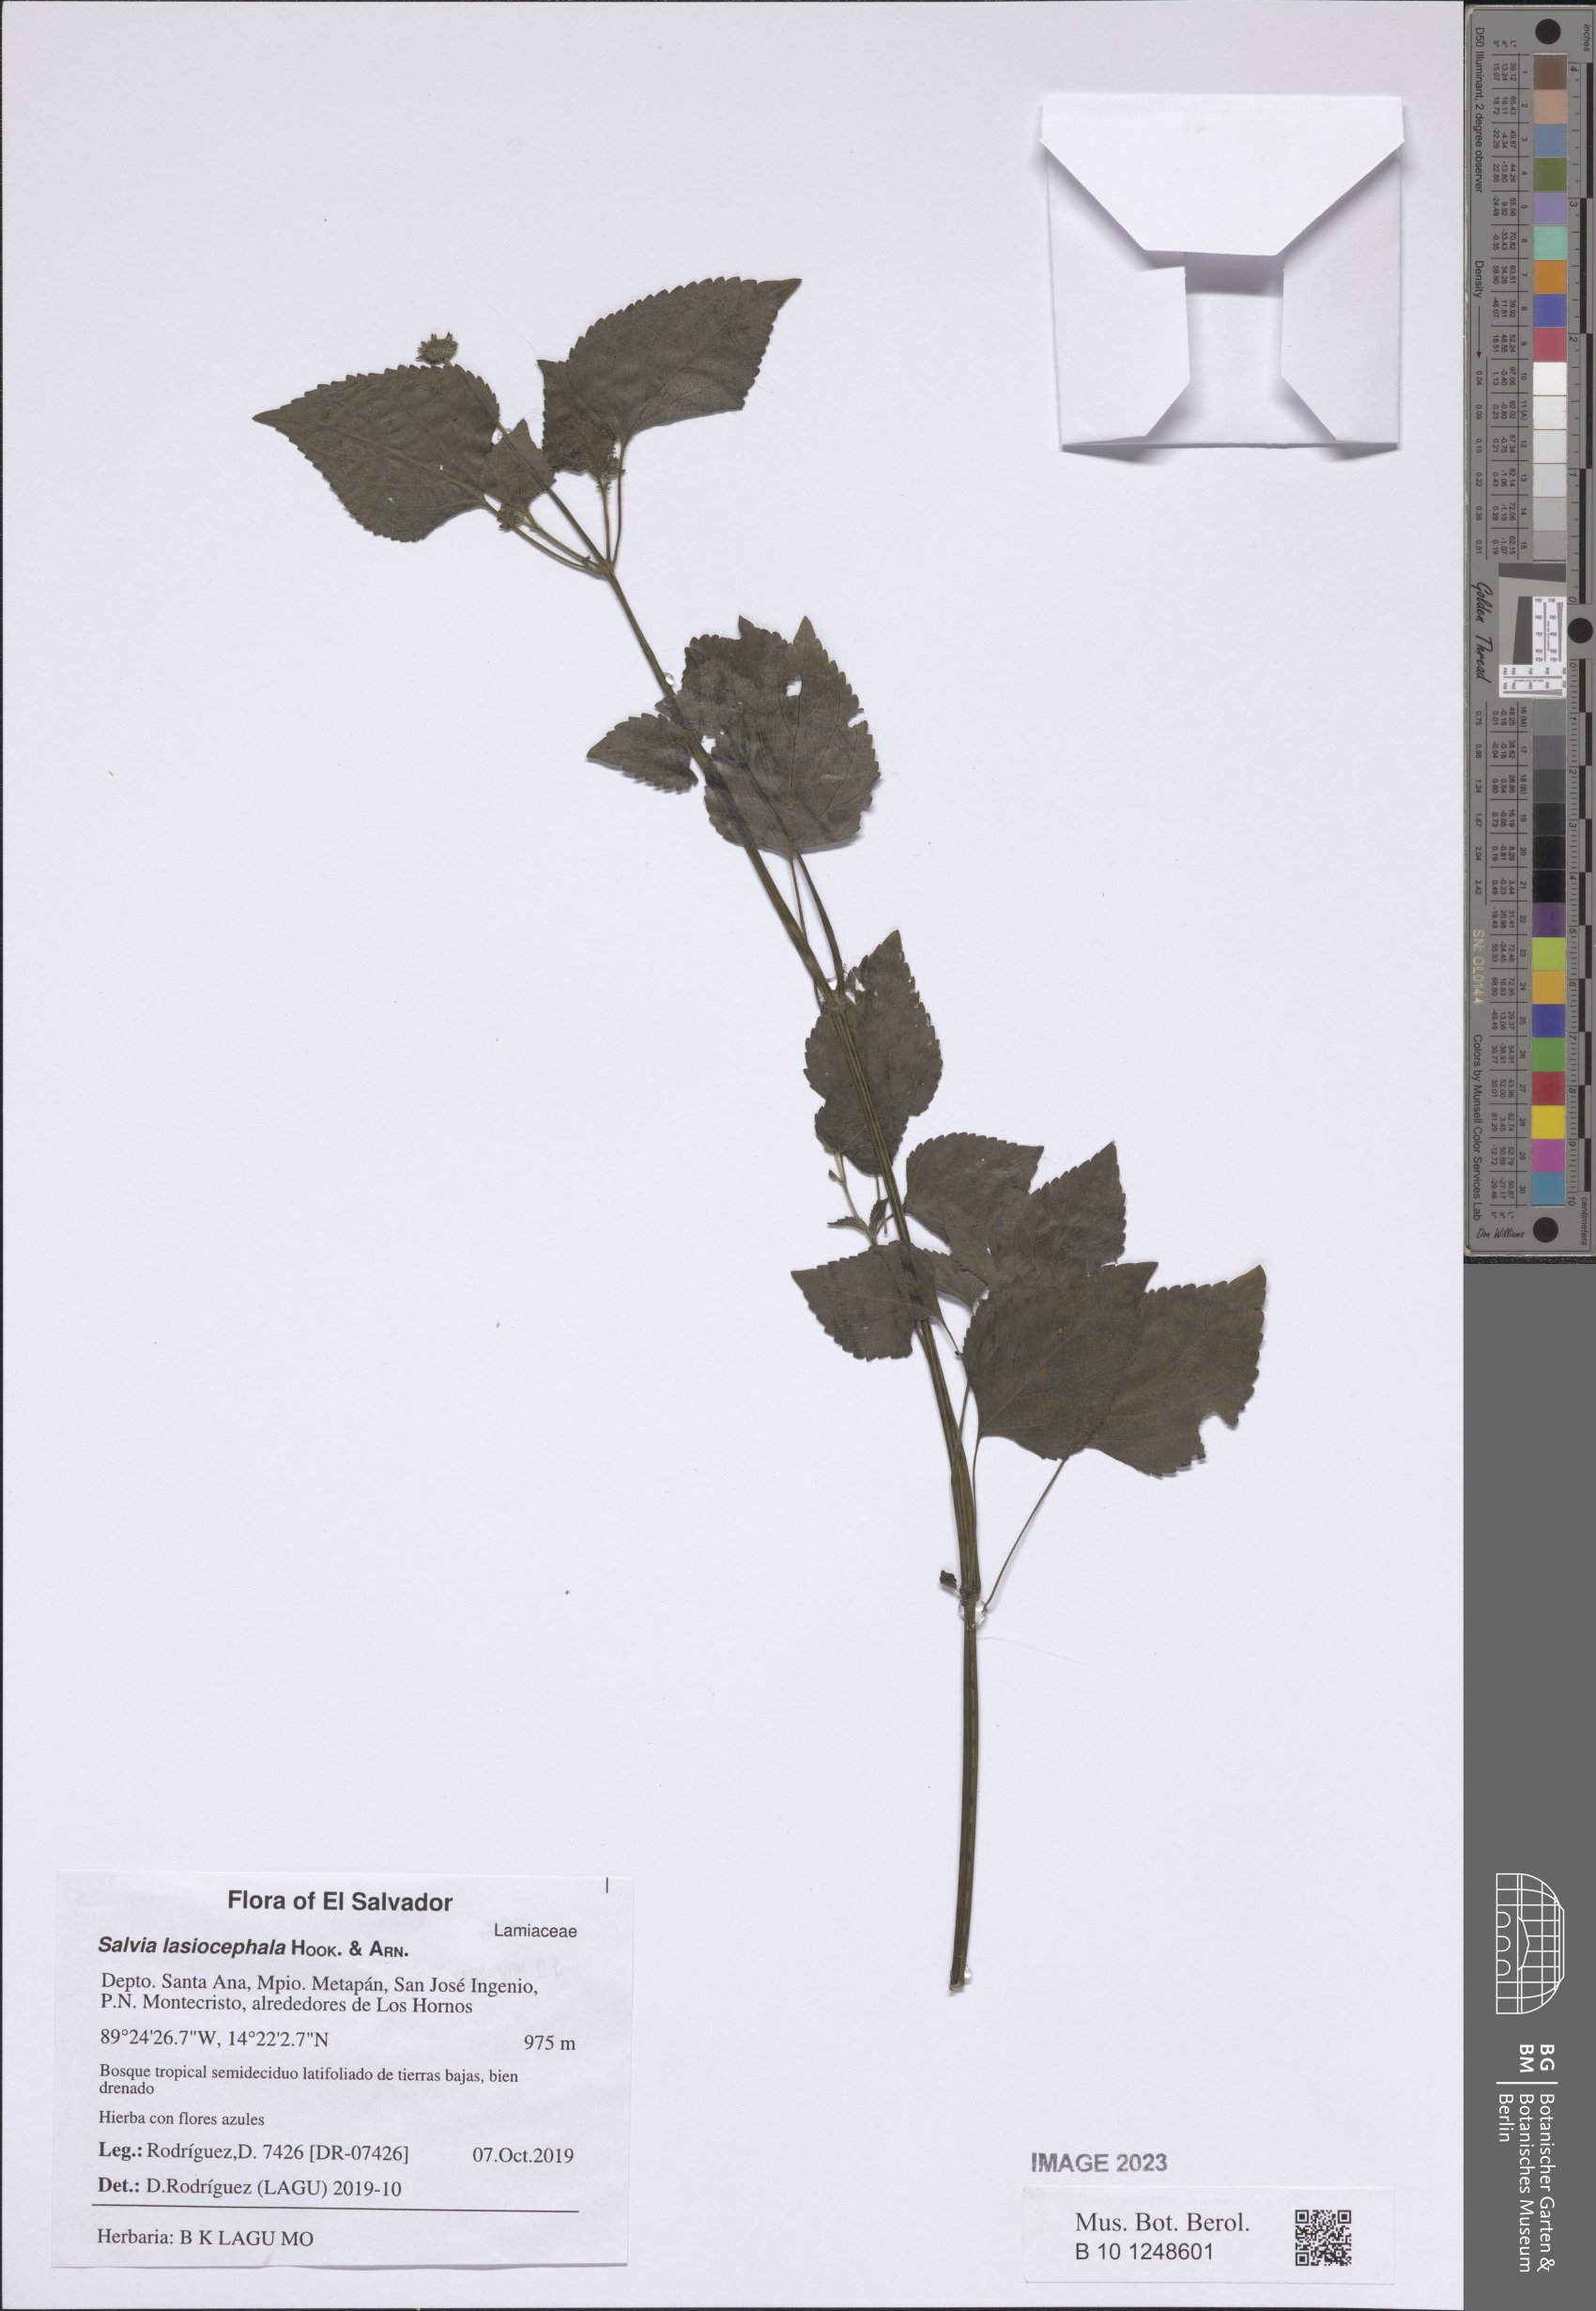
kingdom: Plantae
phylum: Tracheophyta
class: Magnoliopsida
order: Lamiales
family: Lamiaceae
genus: Salvia
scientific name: Salvia lasiocephala
